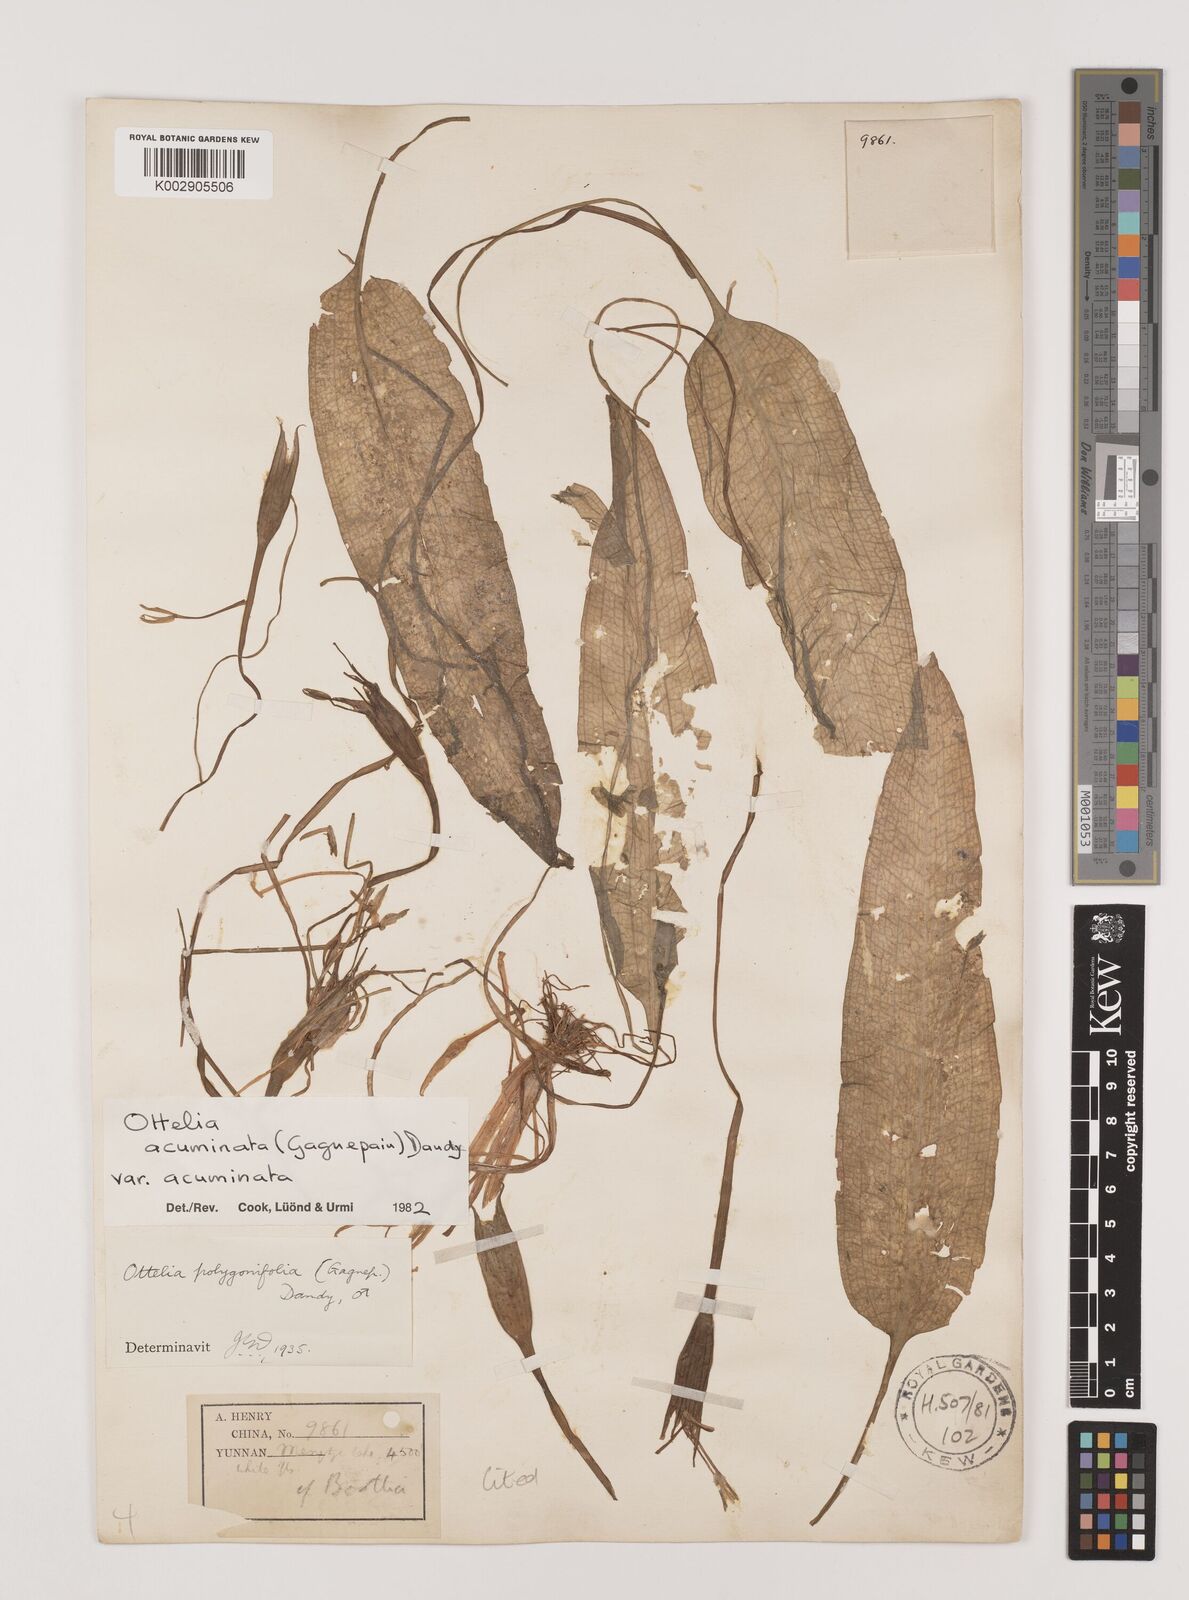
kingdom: Plantae
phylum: Tracheophyta
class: Liliopsida
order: Alismatales
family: Hydrocharitaceae
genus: Ottelia
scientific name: Ottelia acuminata
